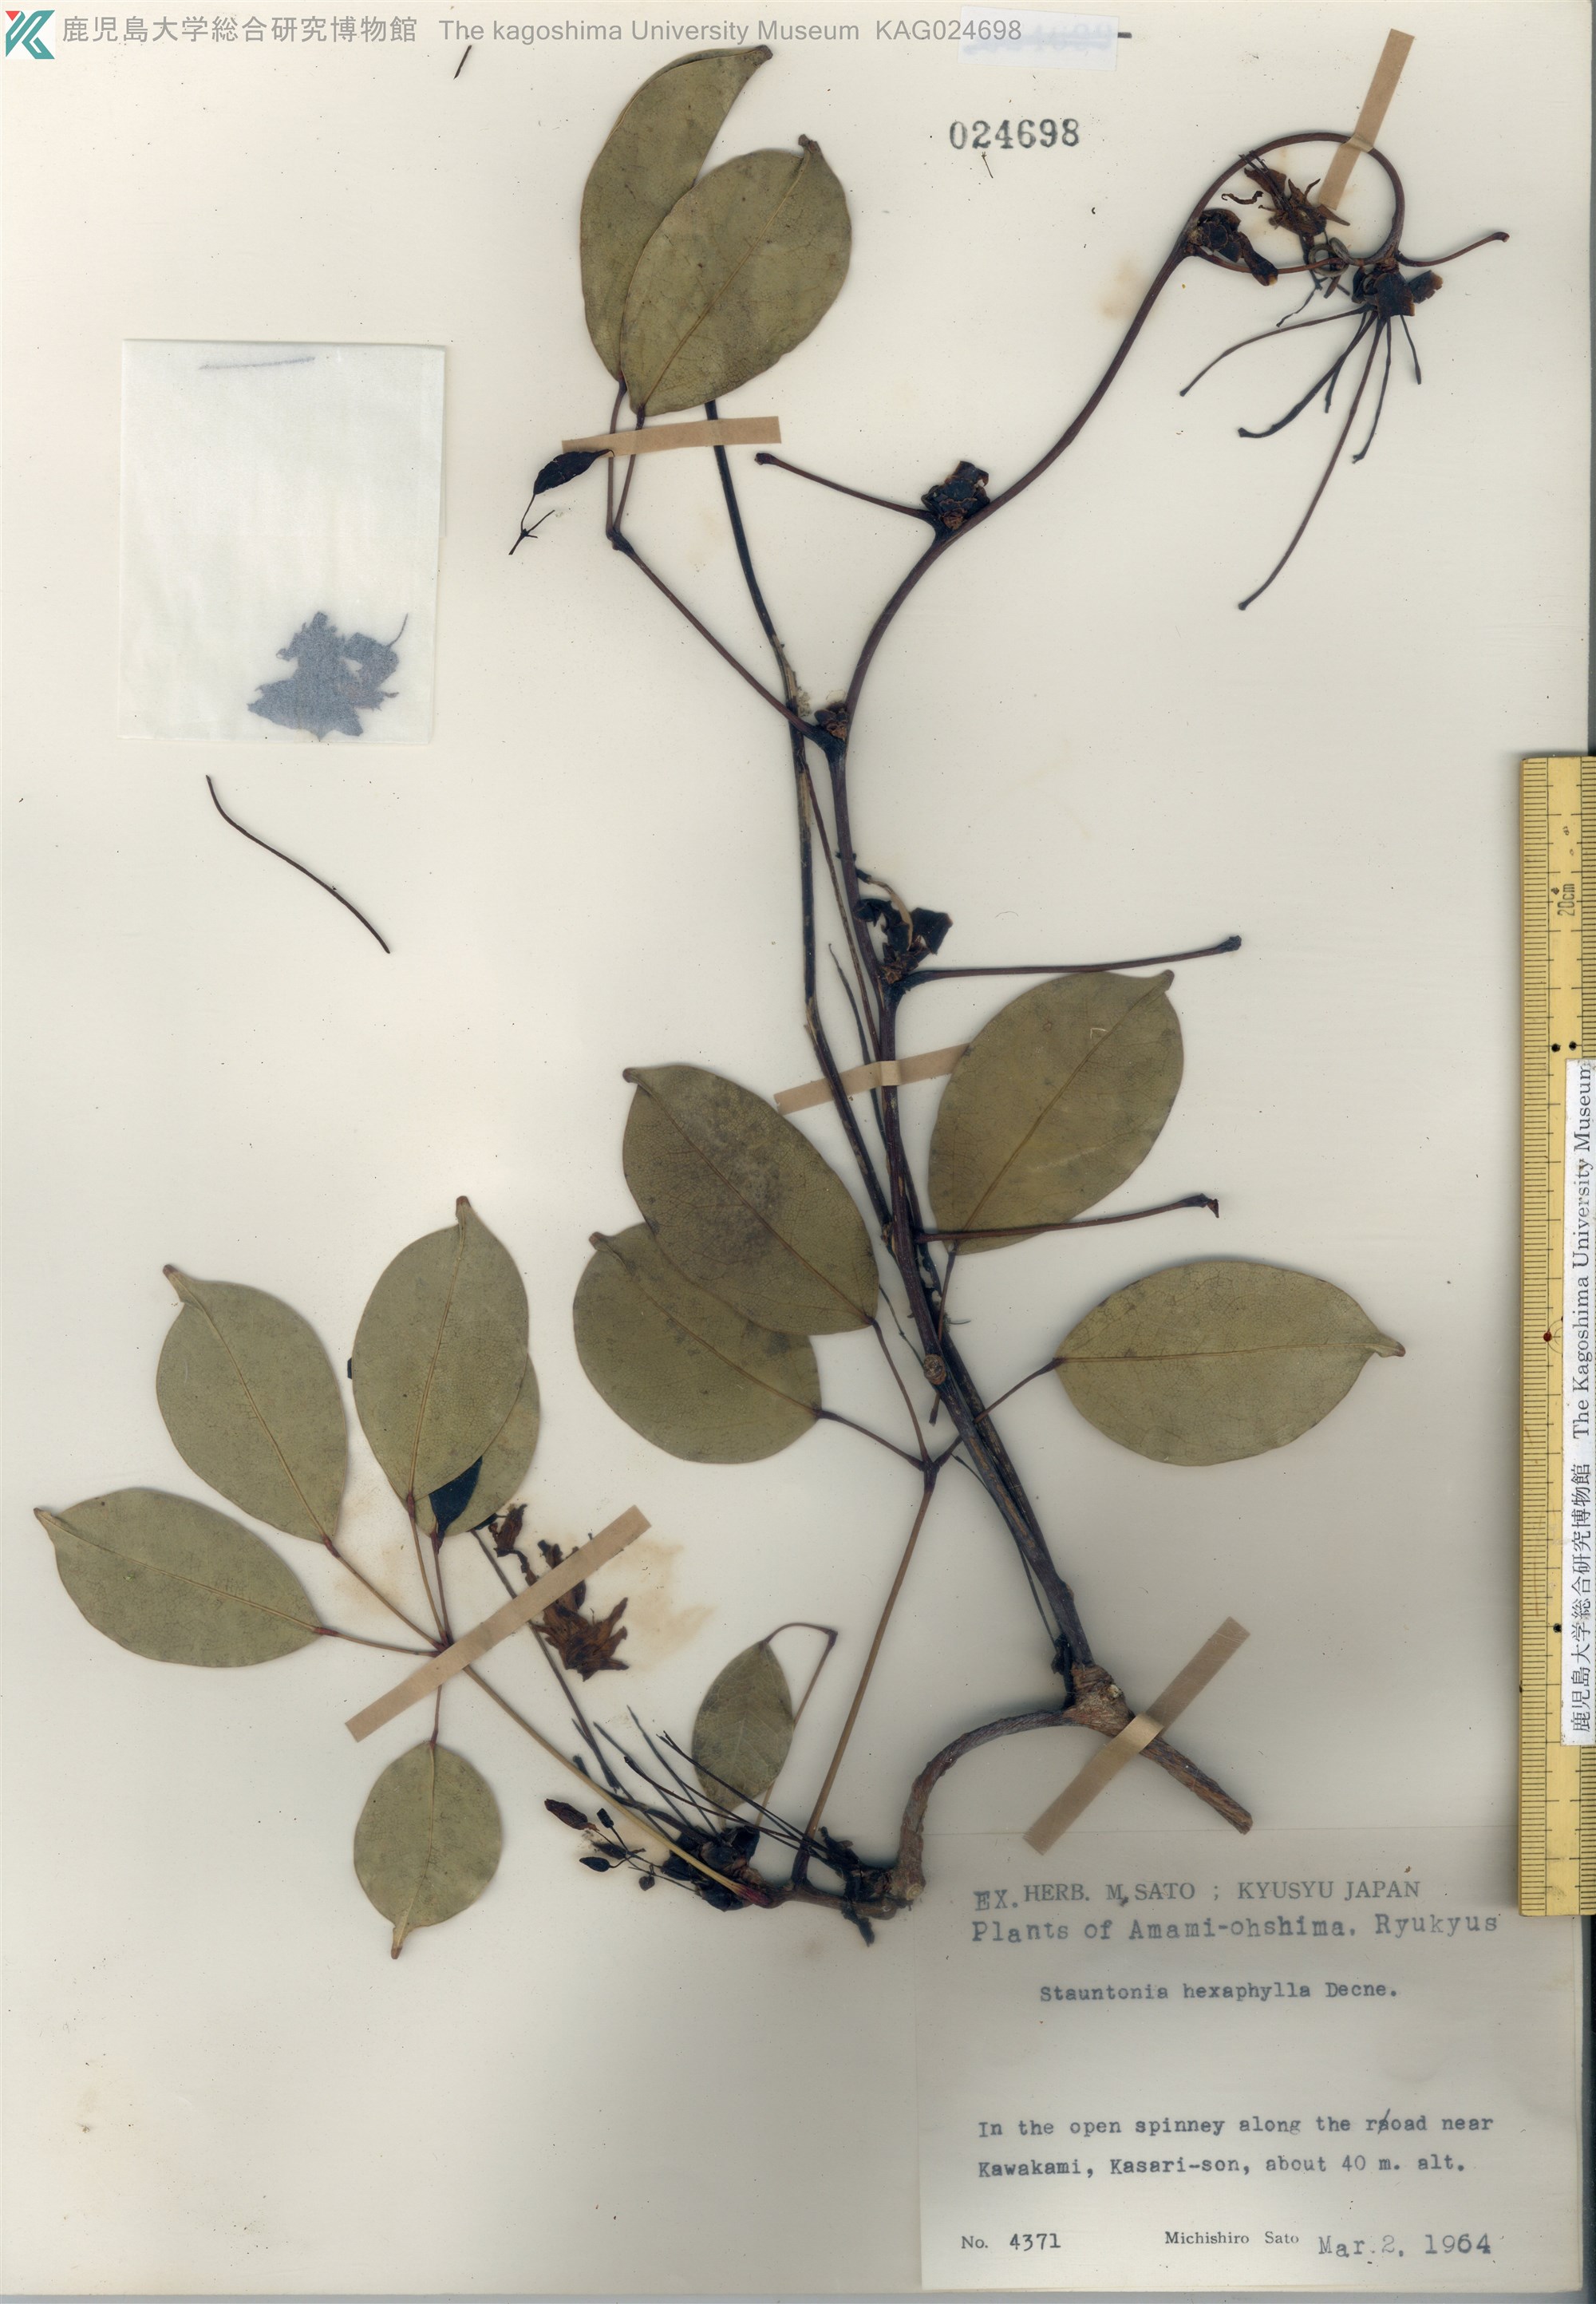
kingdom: Plantae
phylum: Tracheophyta
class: Magnoliopsida
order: Ranunculales
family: Lardizabalaceae
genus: Stauntonia
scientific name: Stauntonia hexaphylla
